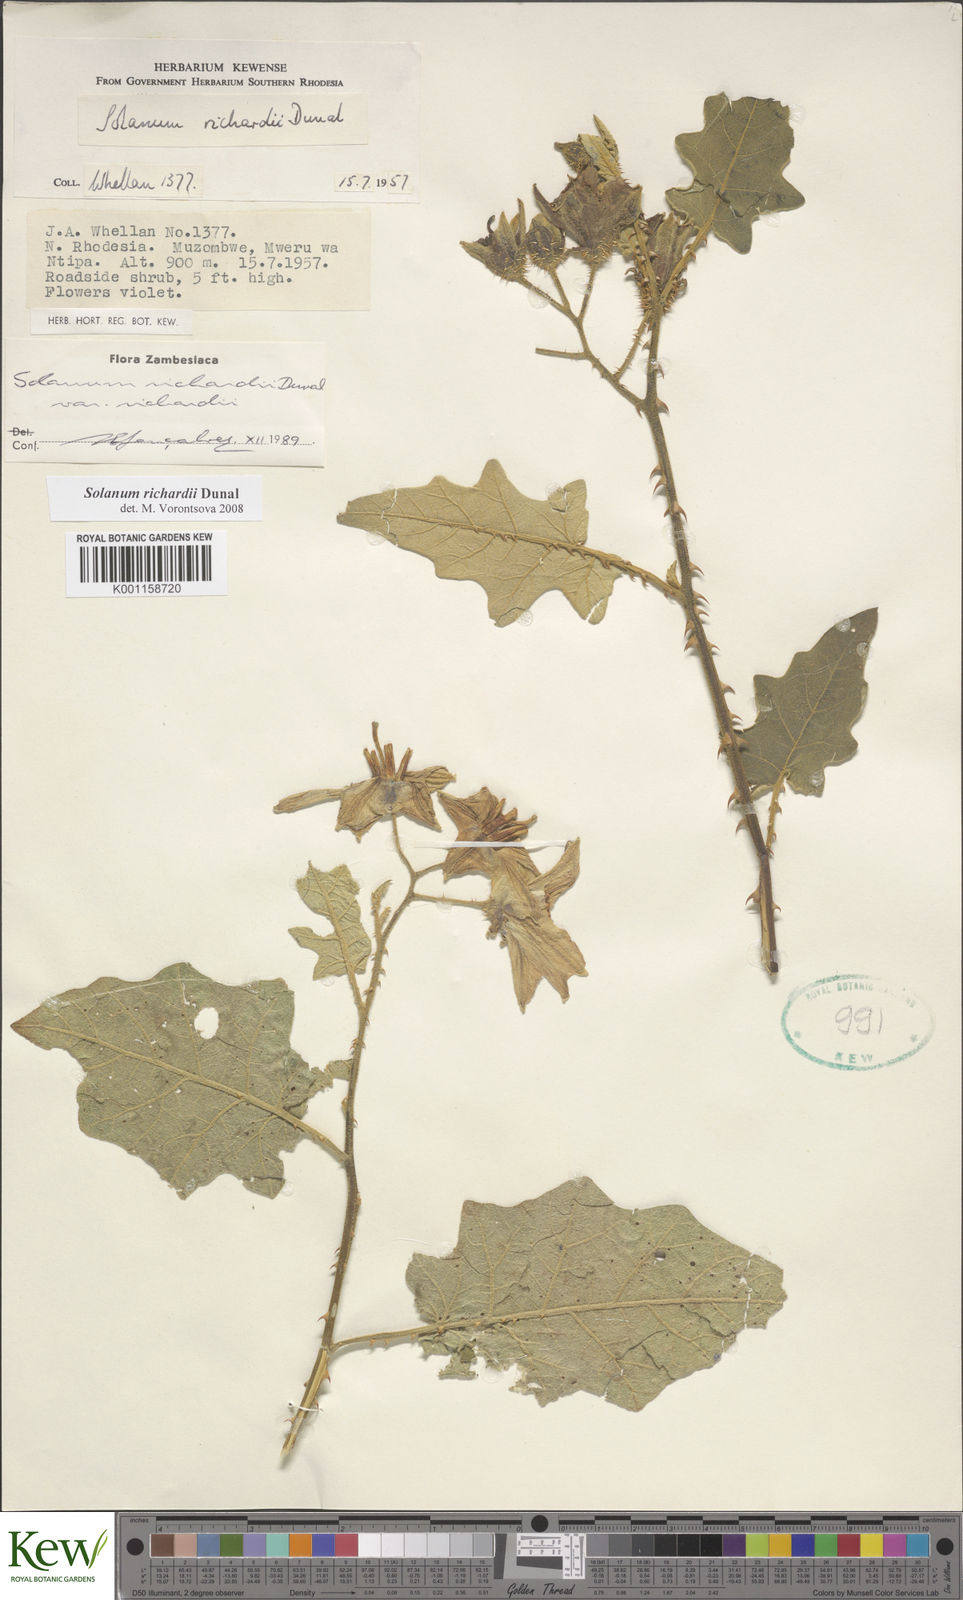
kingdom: Plantae
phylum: Tracheophyta
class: Magnoliopsida
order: Solanales
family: Solanaceae
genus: Solanum
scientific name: Solanum richardii
